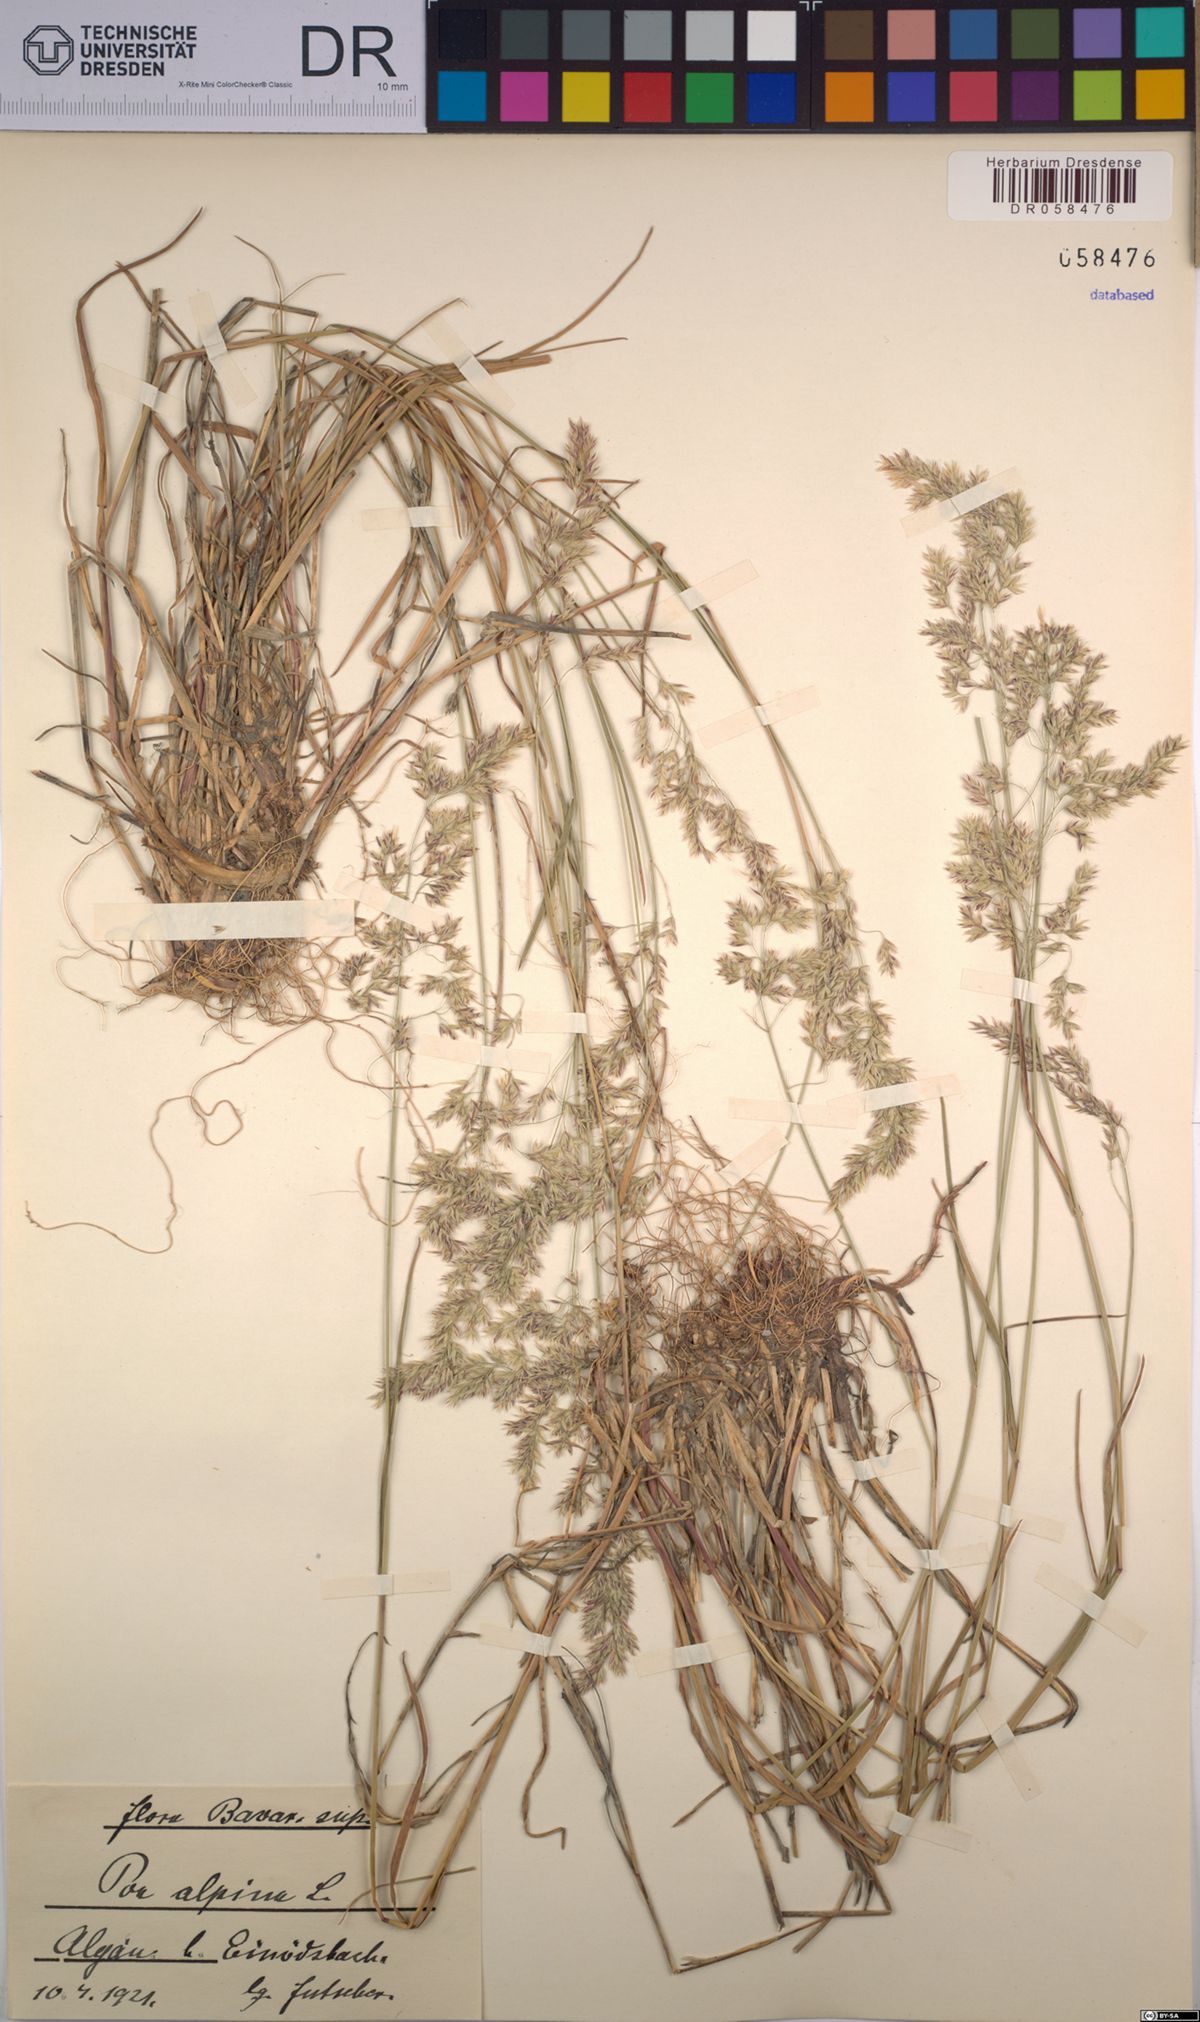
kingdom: Plantae
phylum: Tracheophyta
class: Liliopsida
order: Poales
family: Poaceae
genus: Poa
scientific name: Poa alpina
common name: Alpine bluegrass
